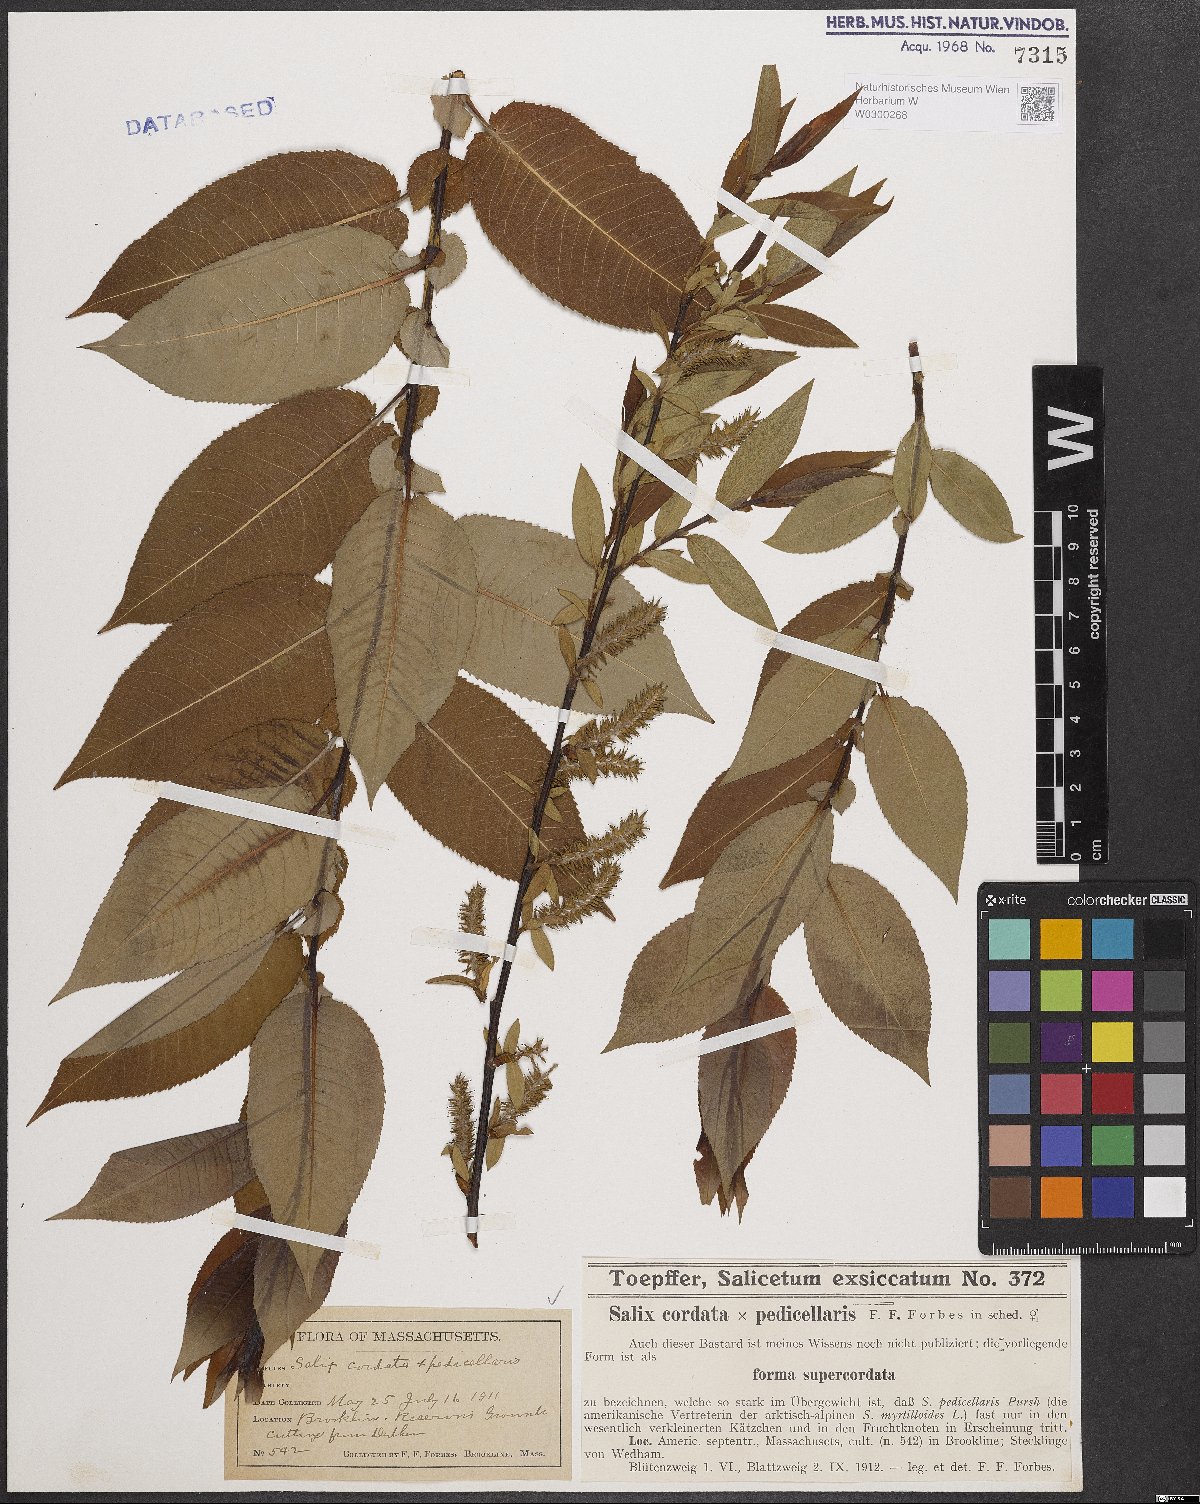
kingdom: Plantae
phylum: Tracheophyta
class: Magnoliopsida
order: Malpighiales
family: Salicaceae
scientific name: Salicaceae
